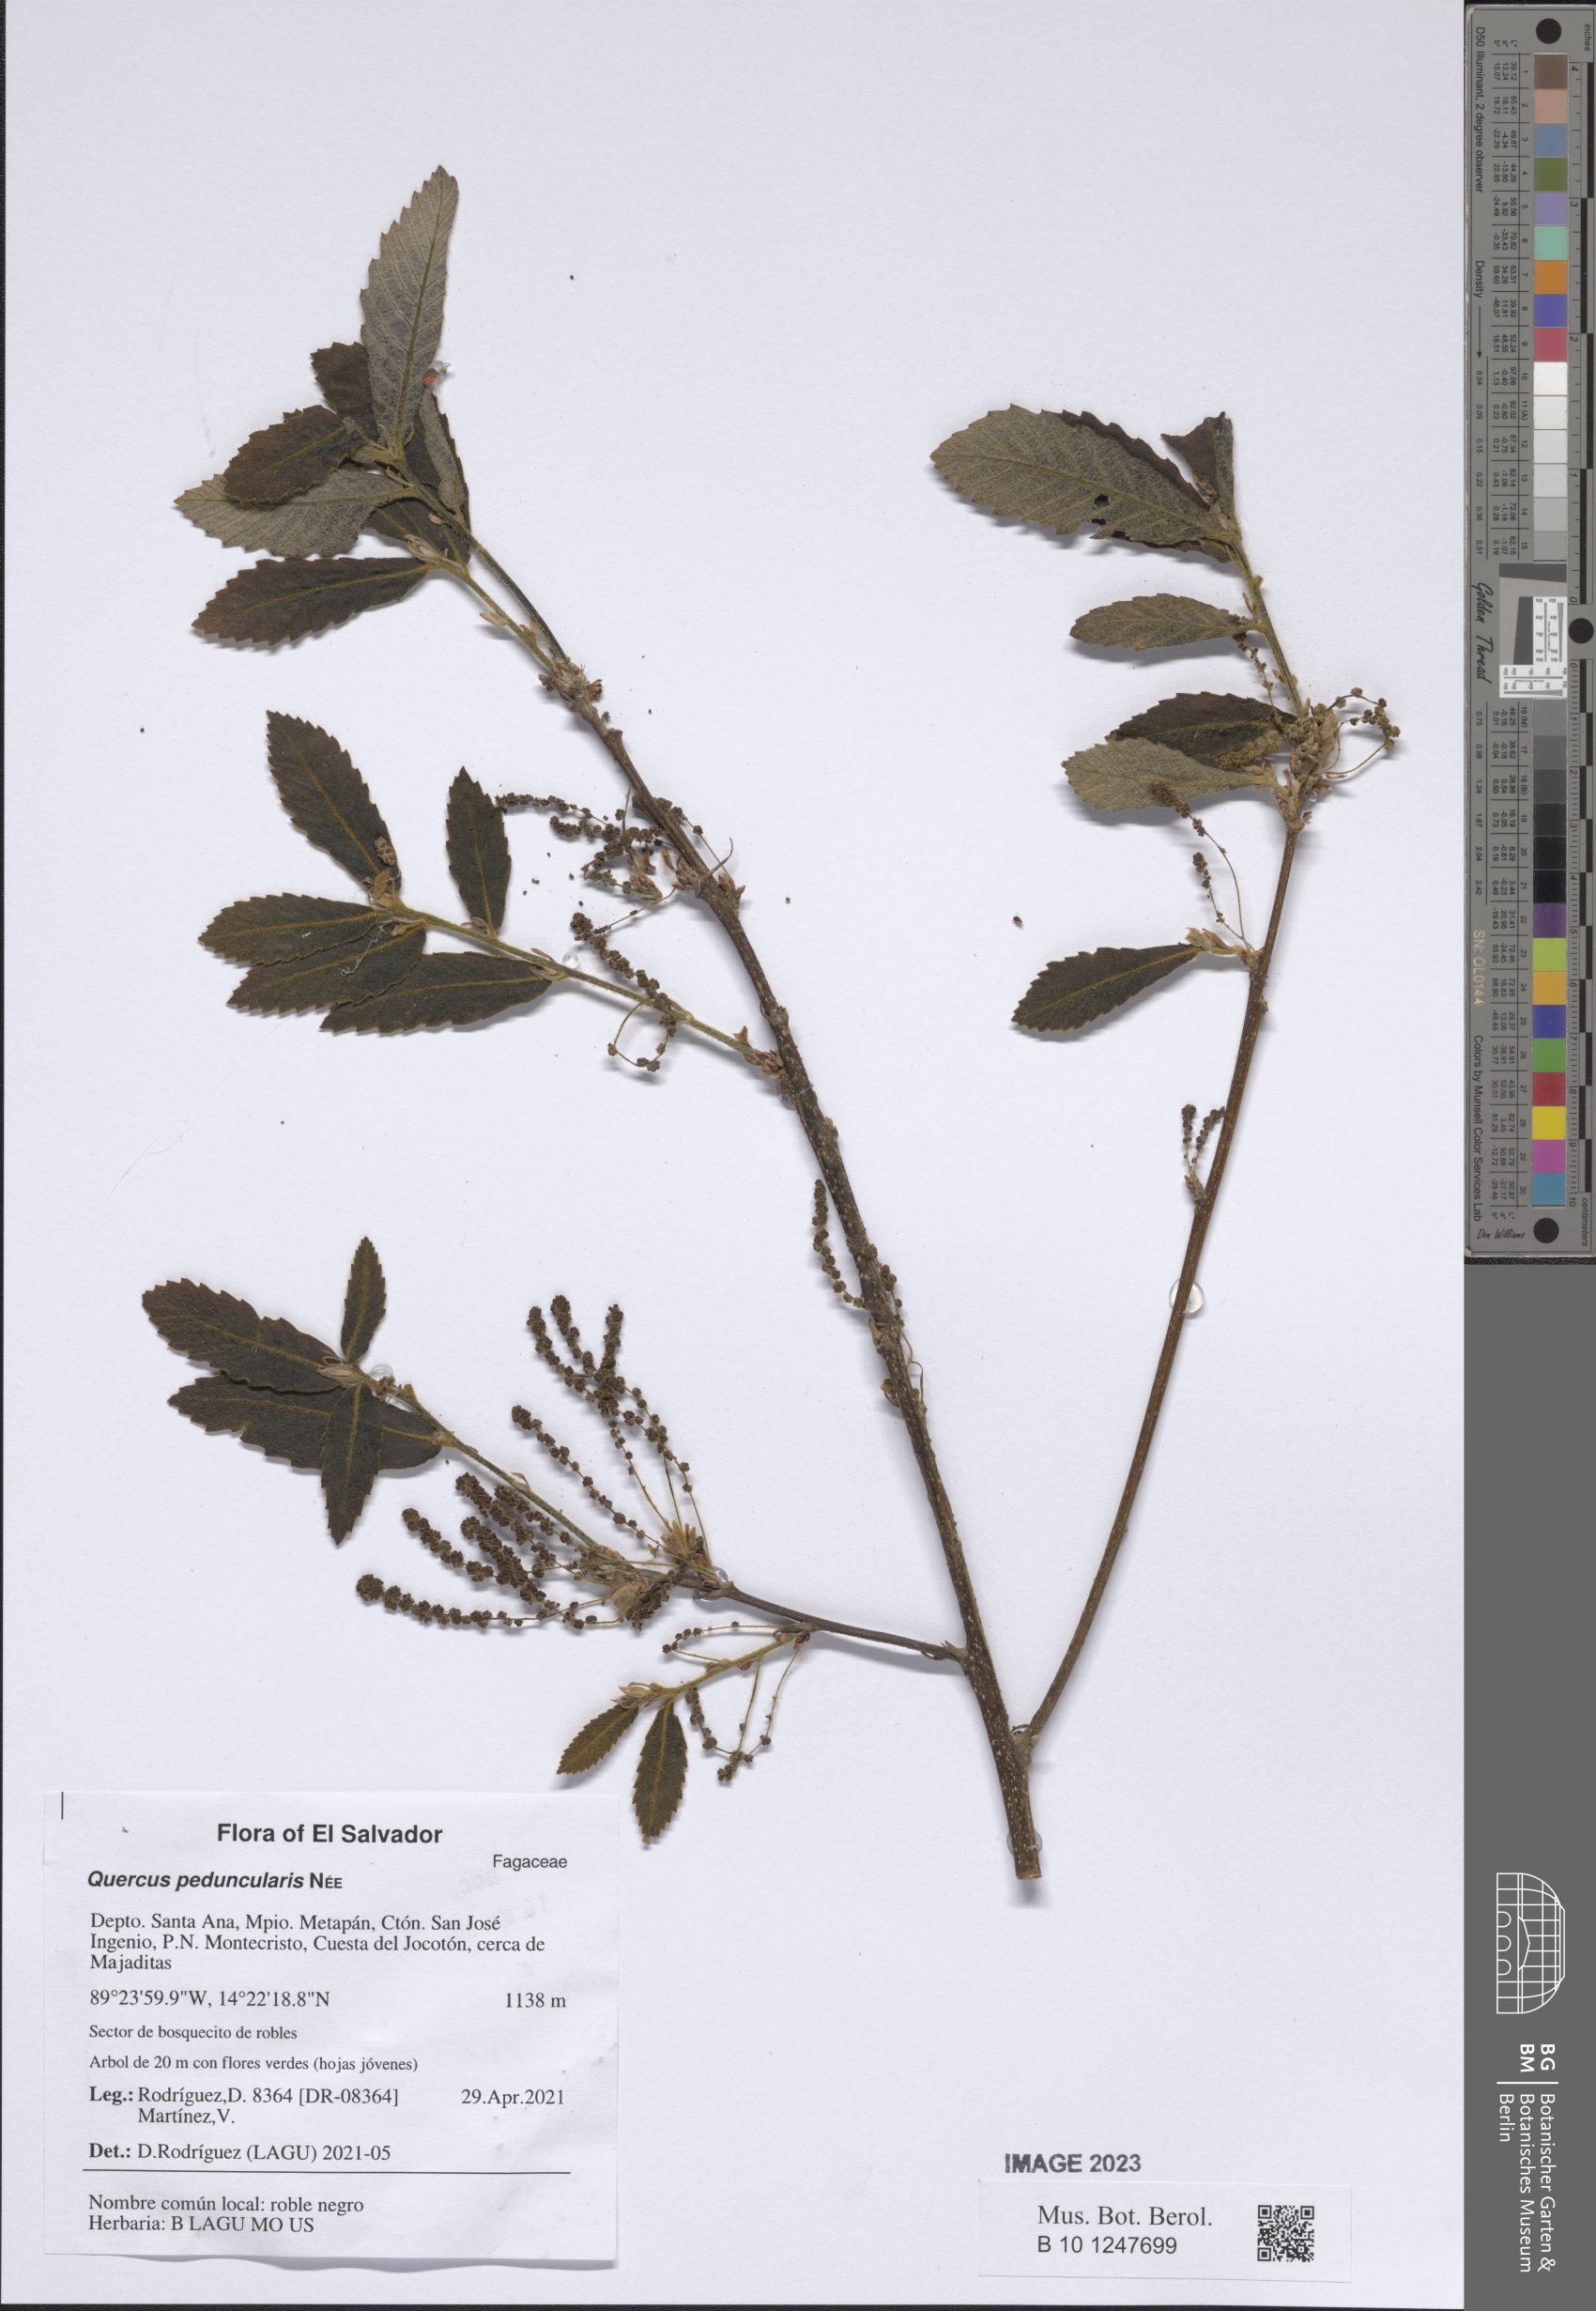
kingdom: Plantae
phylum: Tracheophyta
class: Magnoliopsida
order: Fagales
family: Fagaceae
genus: Quercus
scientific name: Quercus peduncularis
